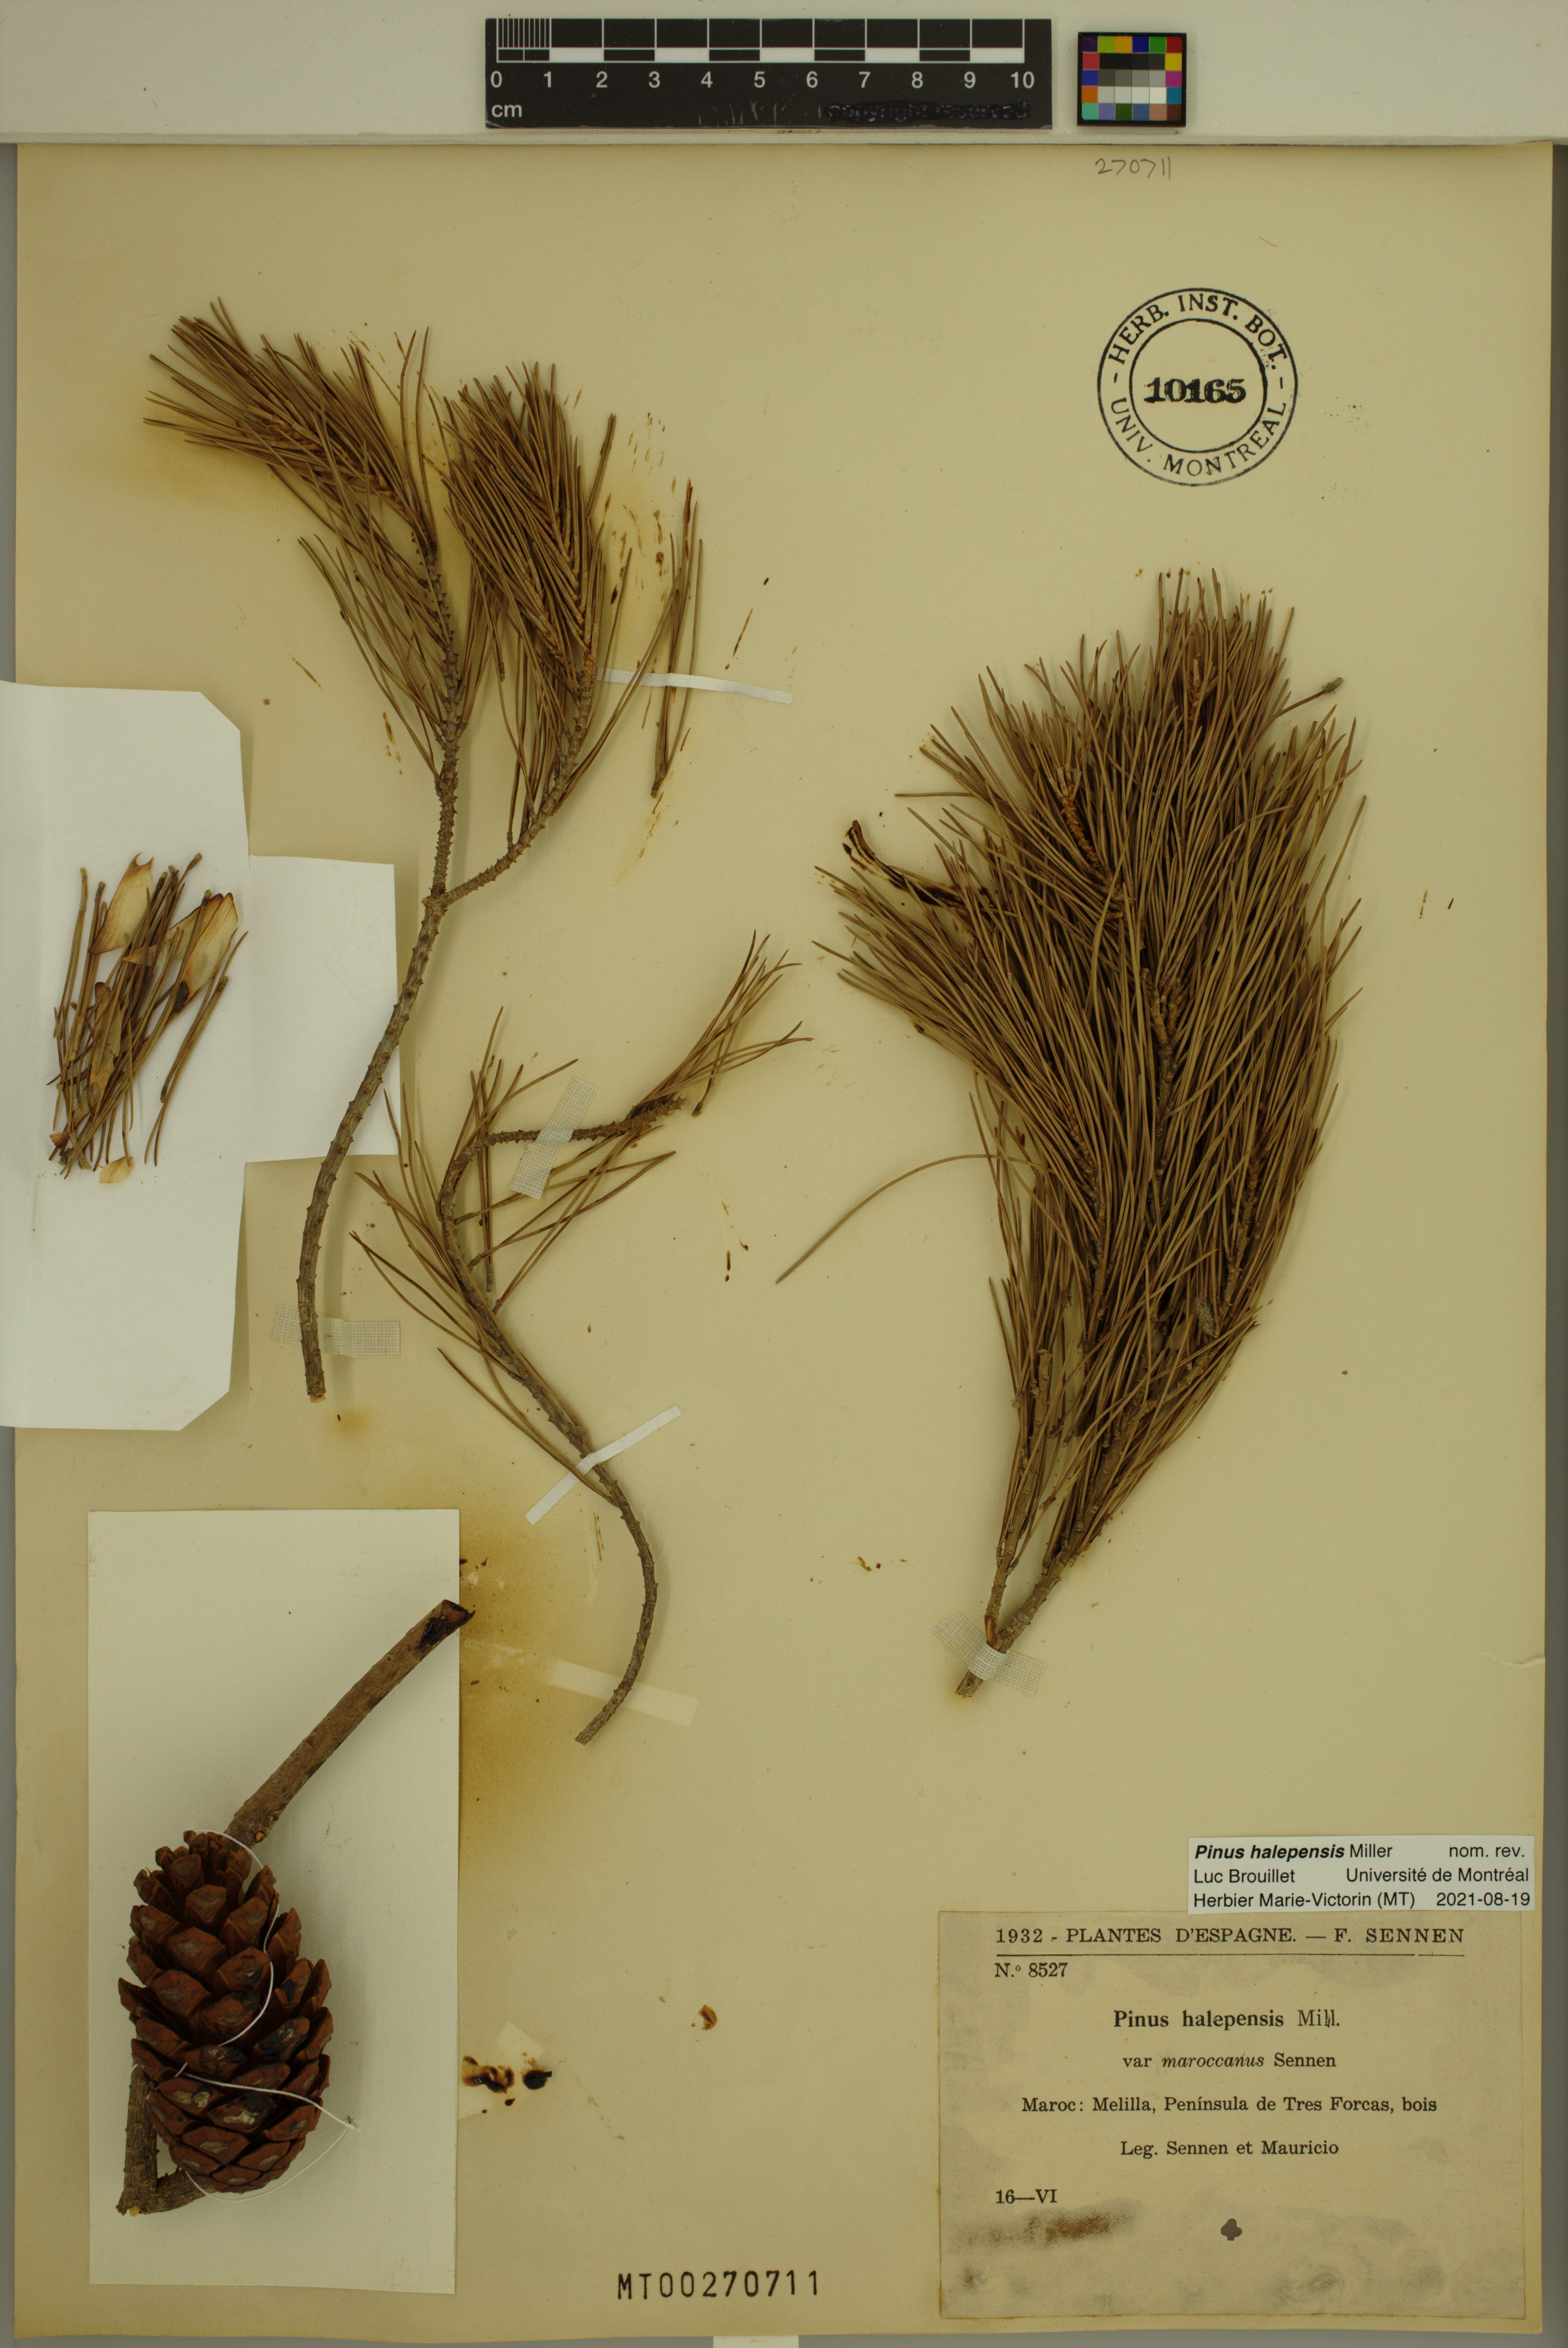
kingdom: Plantae
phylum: Tracheophyta
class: Pinopsida
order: Pinales
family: Pinaceae
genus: Pinus
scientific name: Pinus halepensis
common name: Aleppo pine
